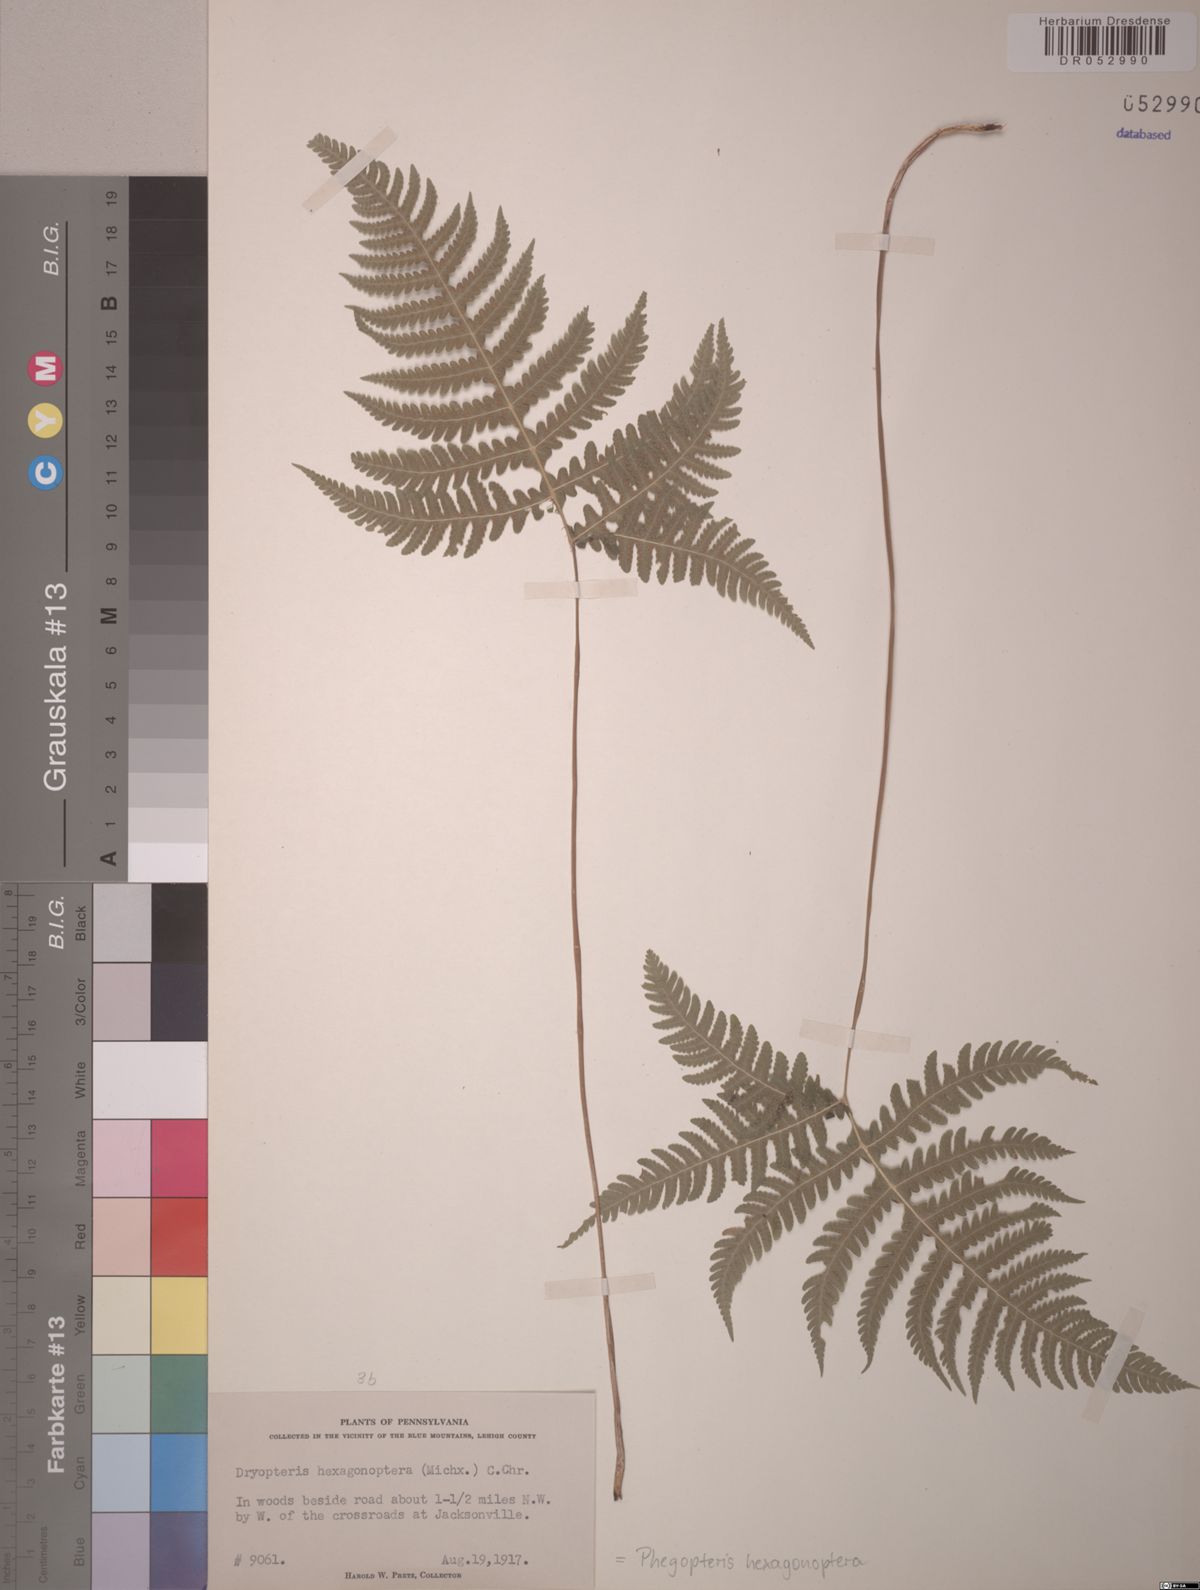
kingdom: Plantae
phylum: Tracheophyta
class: Polypodiopsida
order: Polypodiales
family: Thelypteridaceae
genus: Phegopteris
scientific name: Phegopteris hexagonoptera
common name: Broad beech fern
